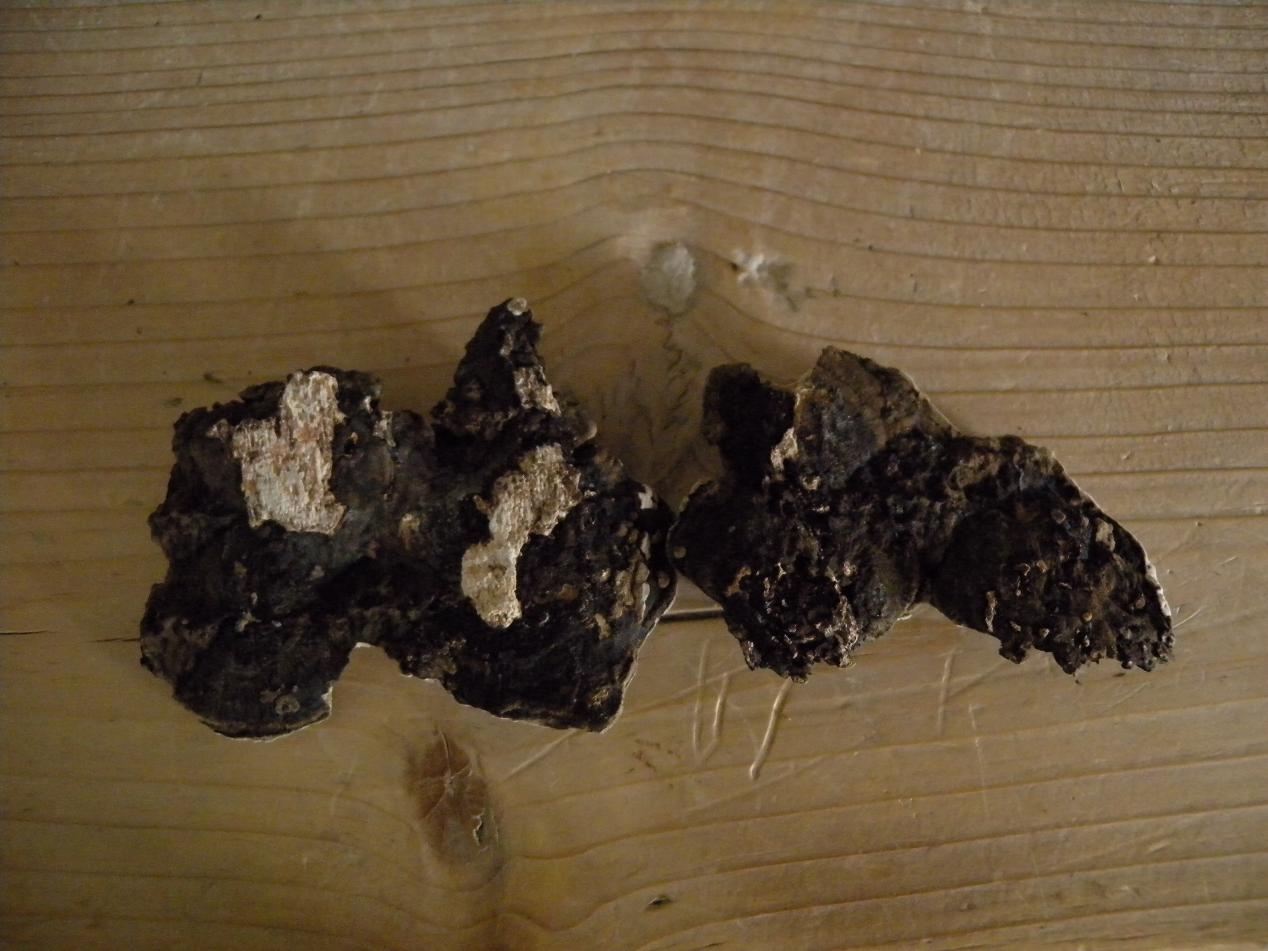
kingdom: Fungi
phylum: Basidiomycota
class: Agaricomycetes
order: Polyporales
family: Polyporaceae
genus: Podofomes
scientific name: Podofomes mollis
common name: blød begporesvamp
